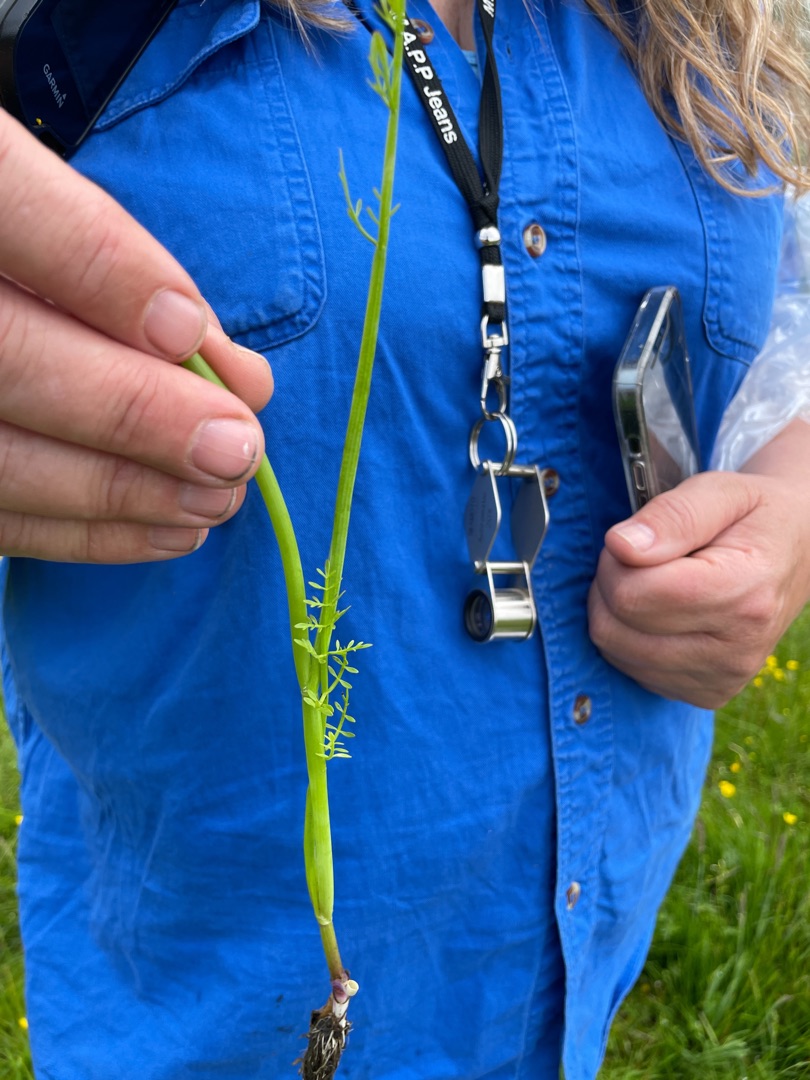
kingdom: Plantae
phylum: Tracheophyta
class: Magnoliopsida
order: Apiales
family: Apiaceae
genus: Oenanthe
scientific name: Oenanthe fistulosa
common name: Vand-klaseskærm
